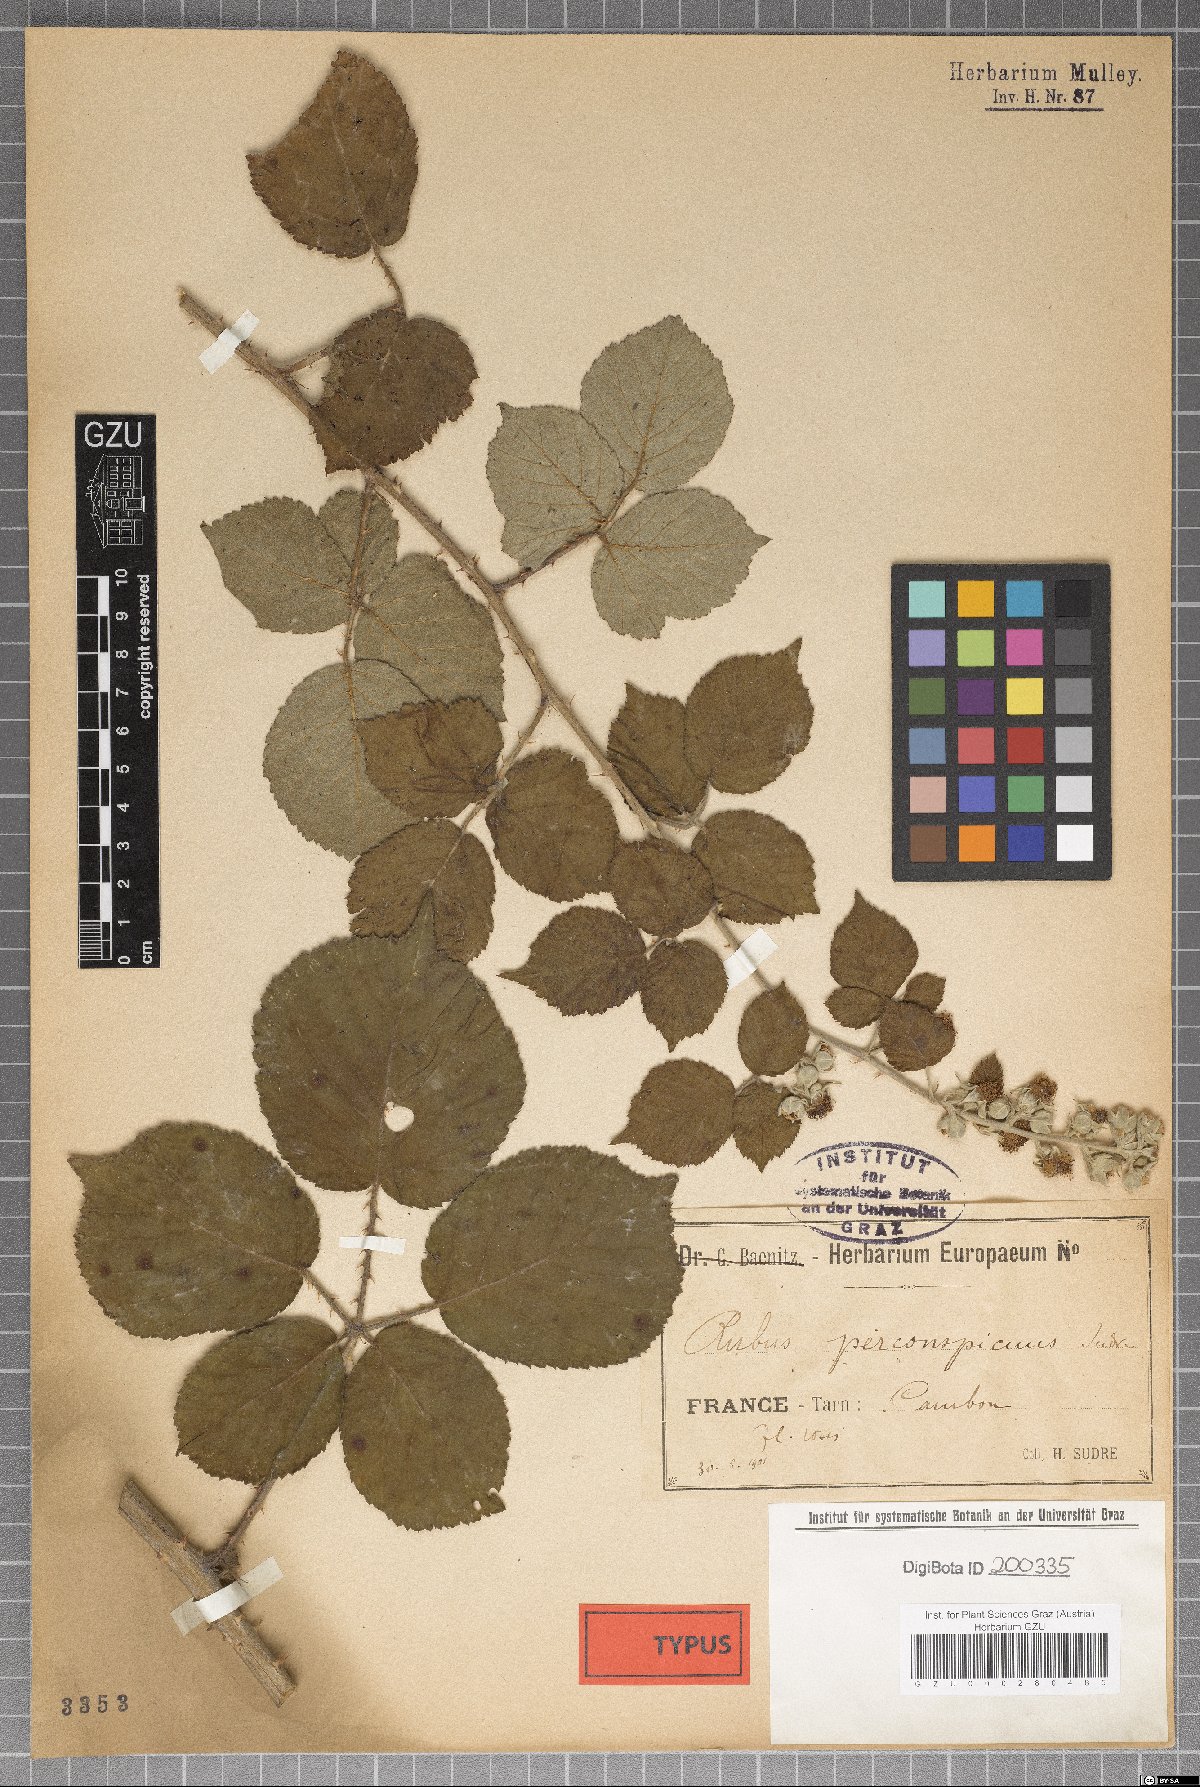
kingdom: Plantae
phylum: Tracheophyta
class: Magnoliopsida
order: Rosales
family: Rosaceae
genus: Rubus
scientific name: Rubus vestitus
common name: European blackberry
